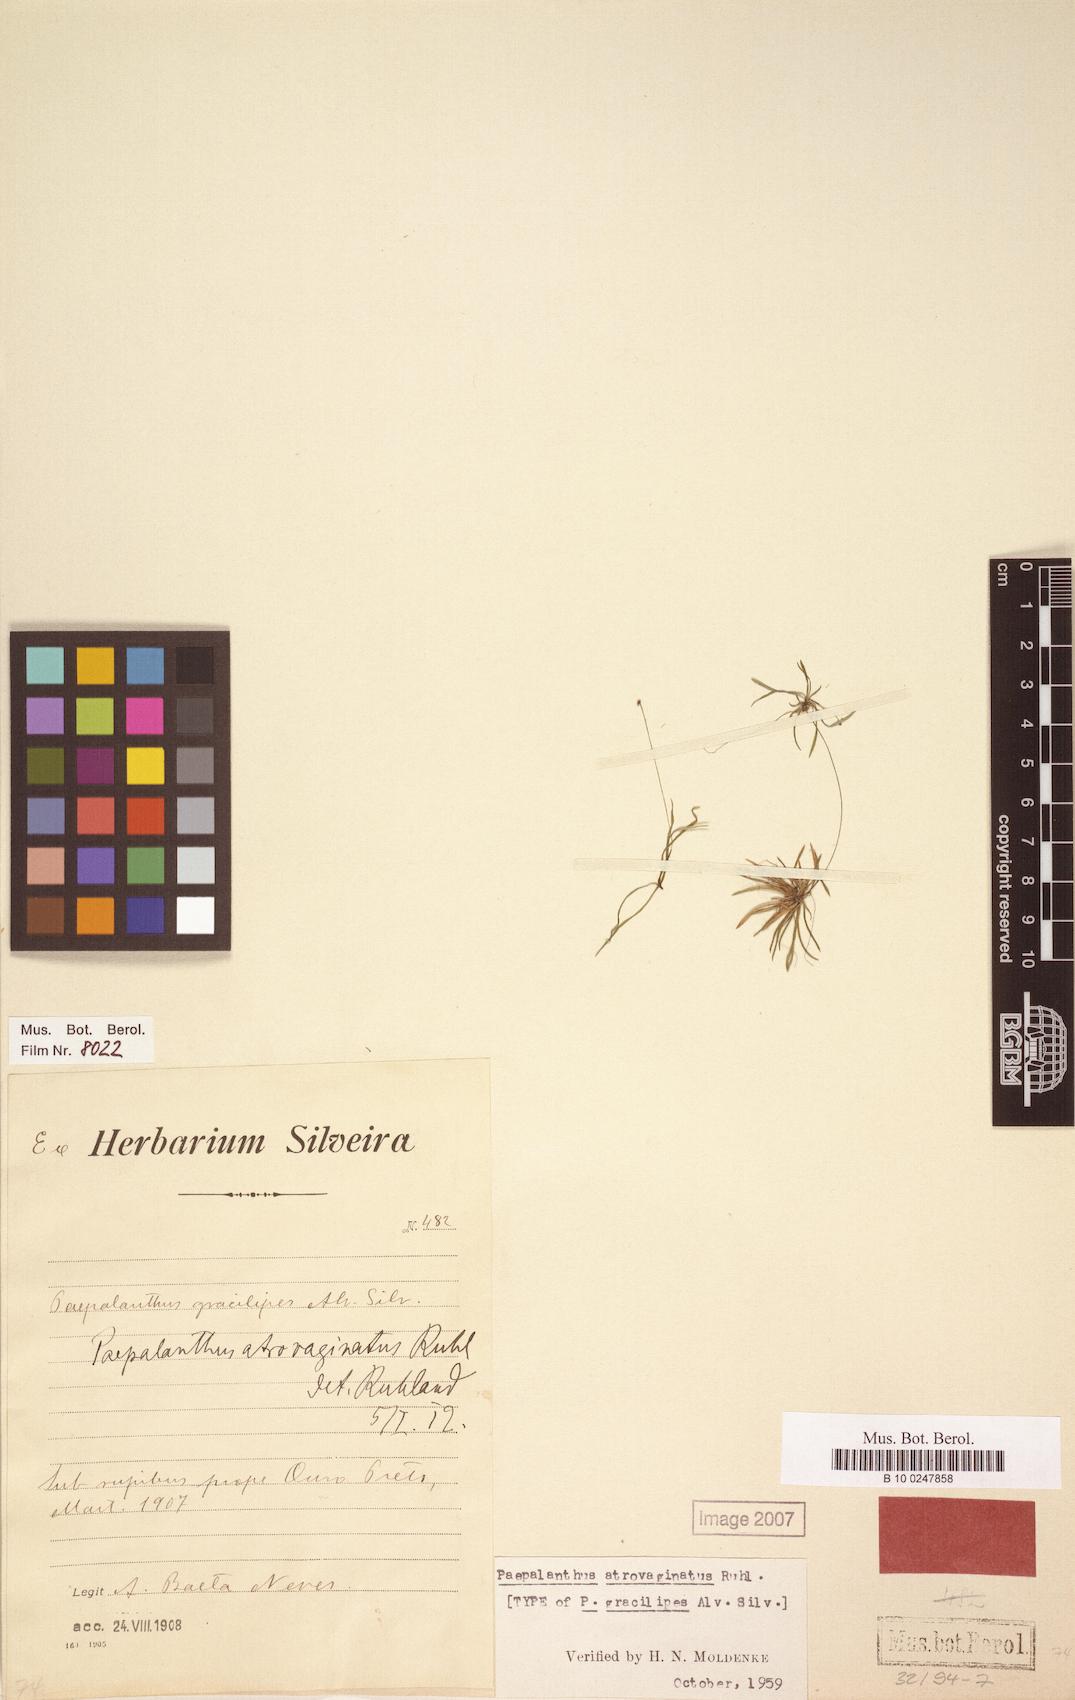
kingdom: Plantae
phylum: Tracheophyta
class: Liliopsida
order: Poales
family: Eriocaulaceae
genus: Paepalanthus
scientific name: Paepalanthus atrovaginatus
